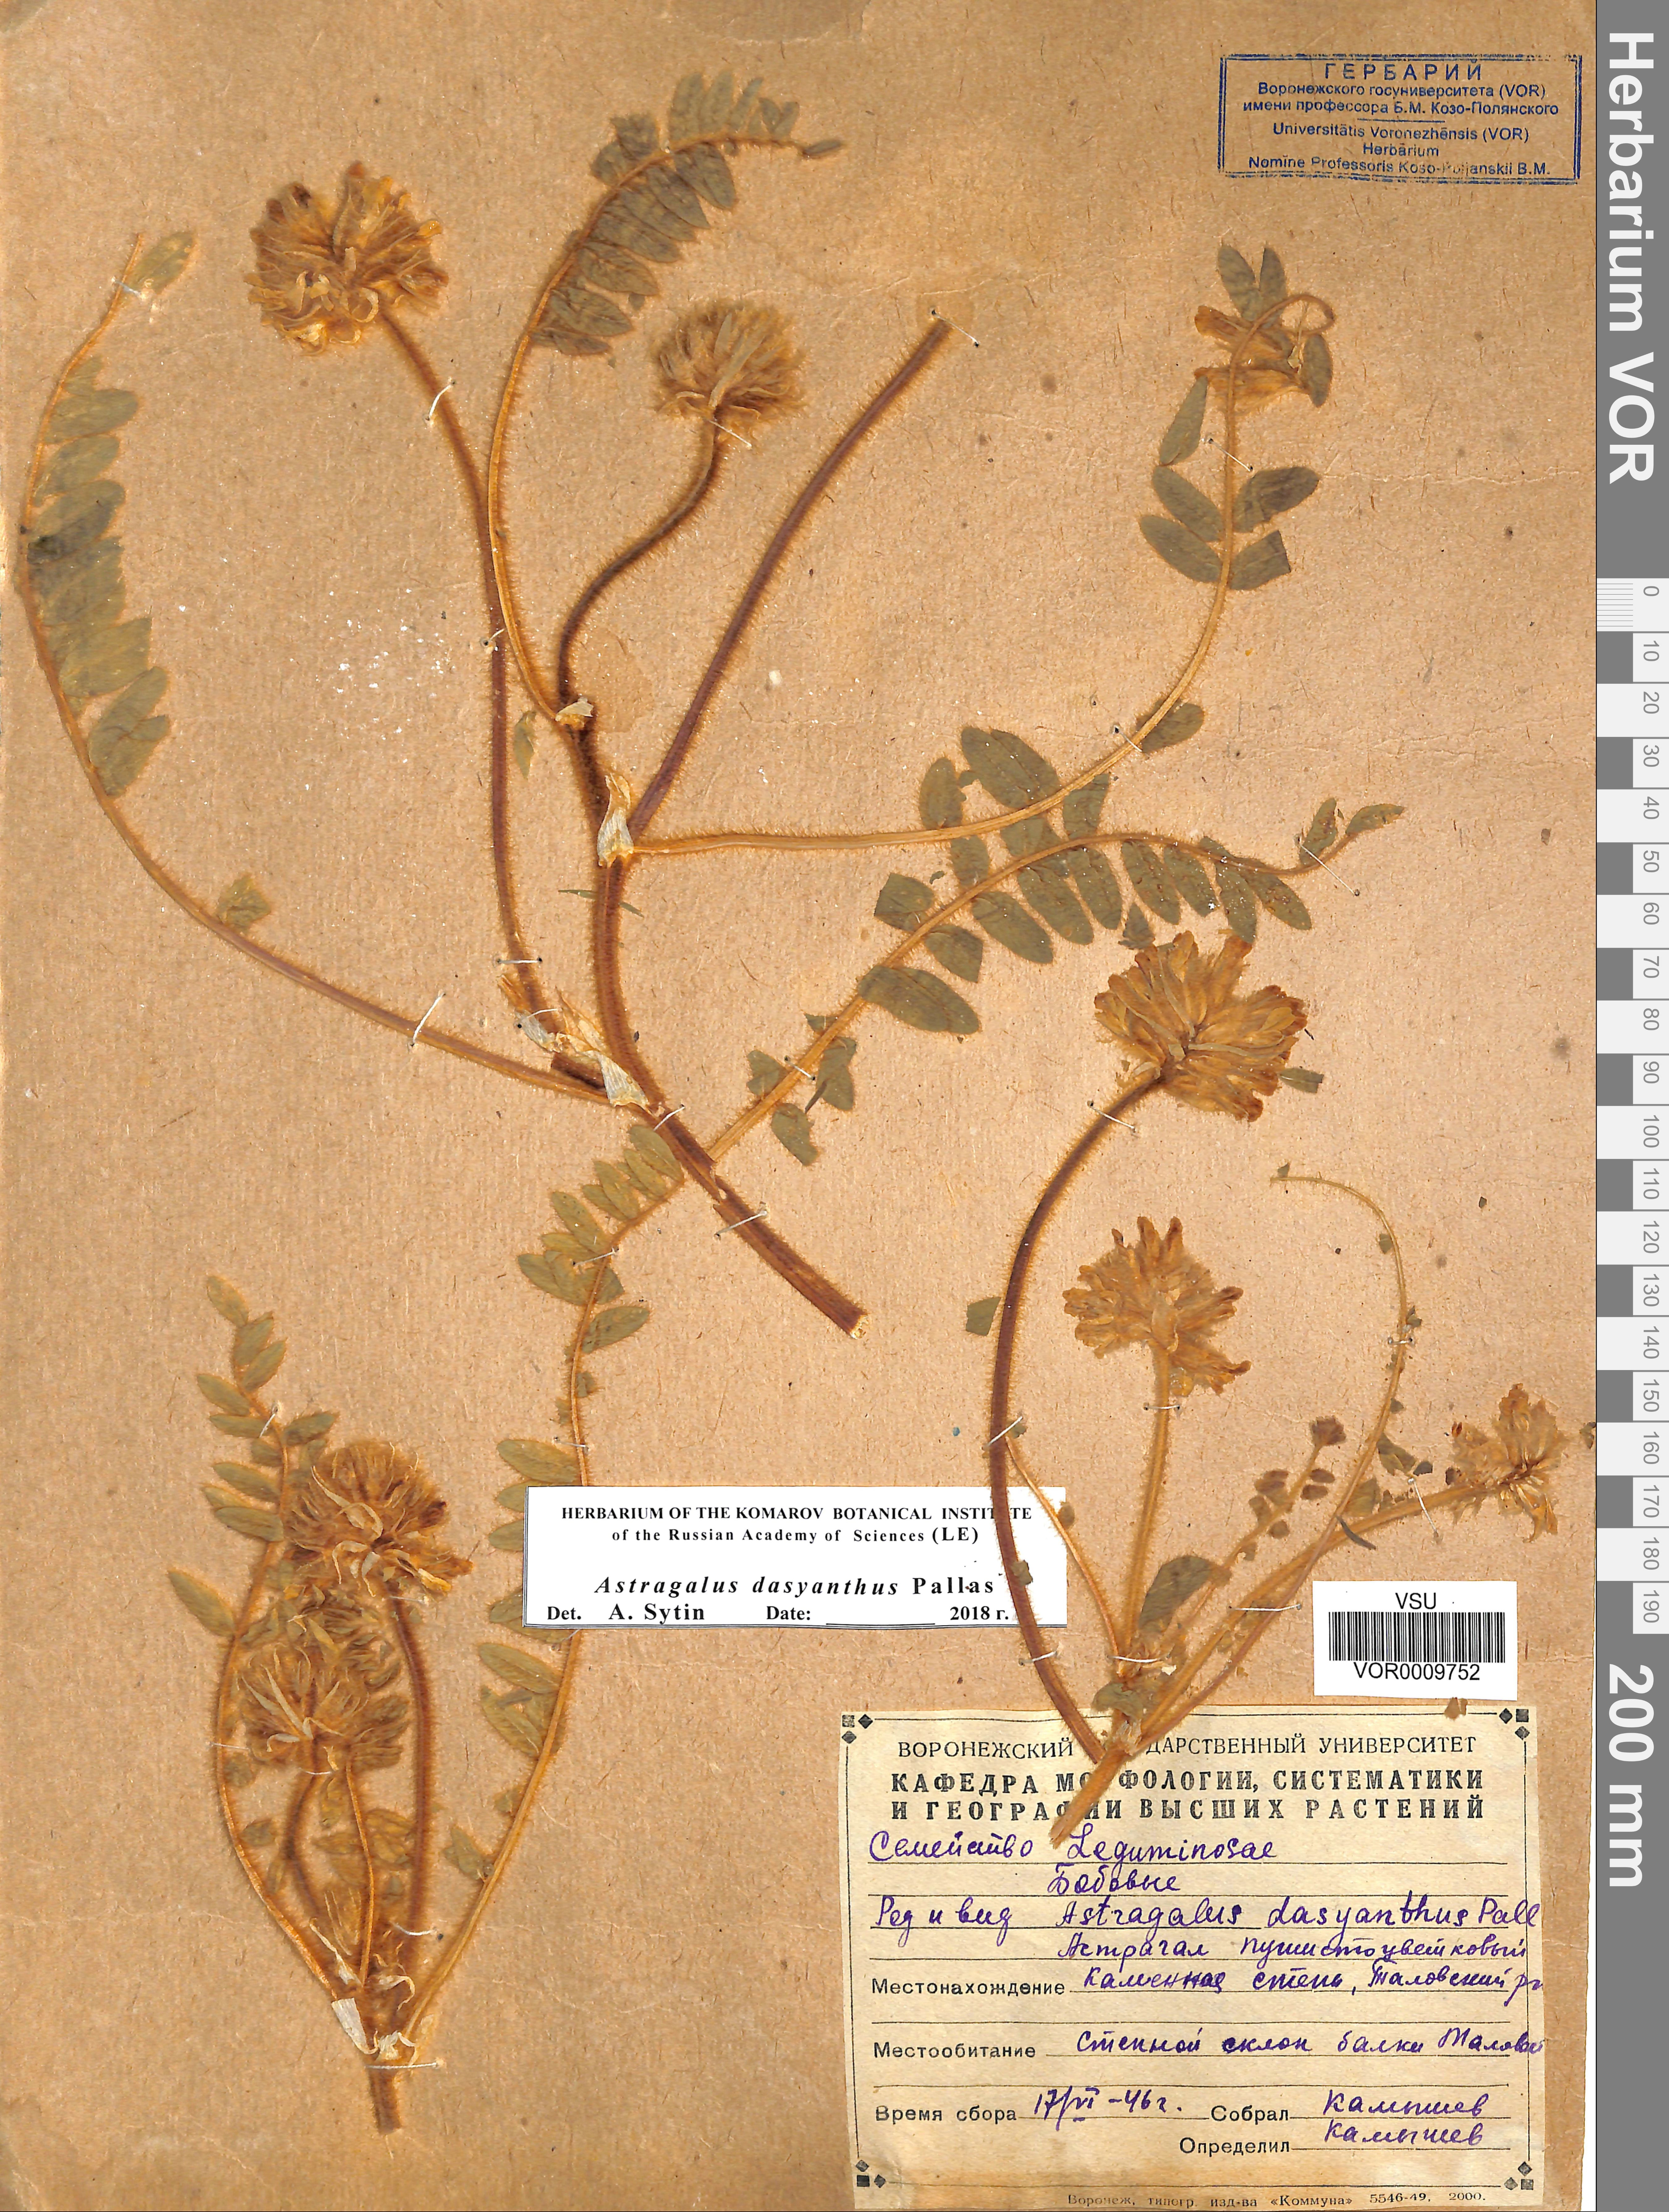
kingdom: Plantae
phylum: Tracheophyta
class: Magnoliopsida
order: Fabales
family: Fabaceae
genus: Astragalus
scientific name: Astragalus dasyanthus
